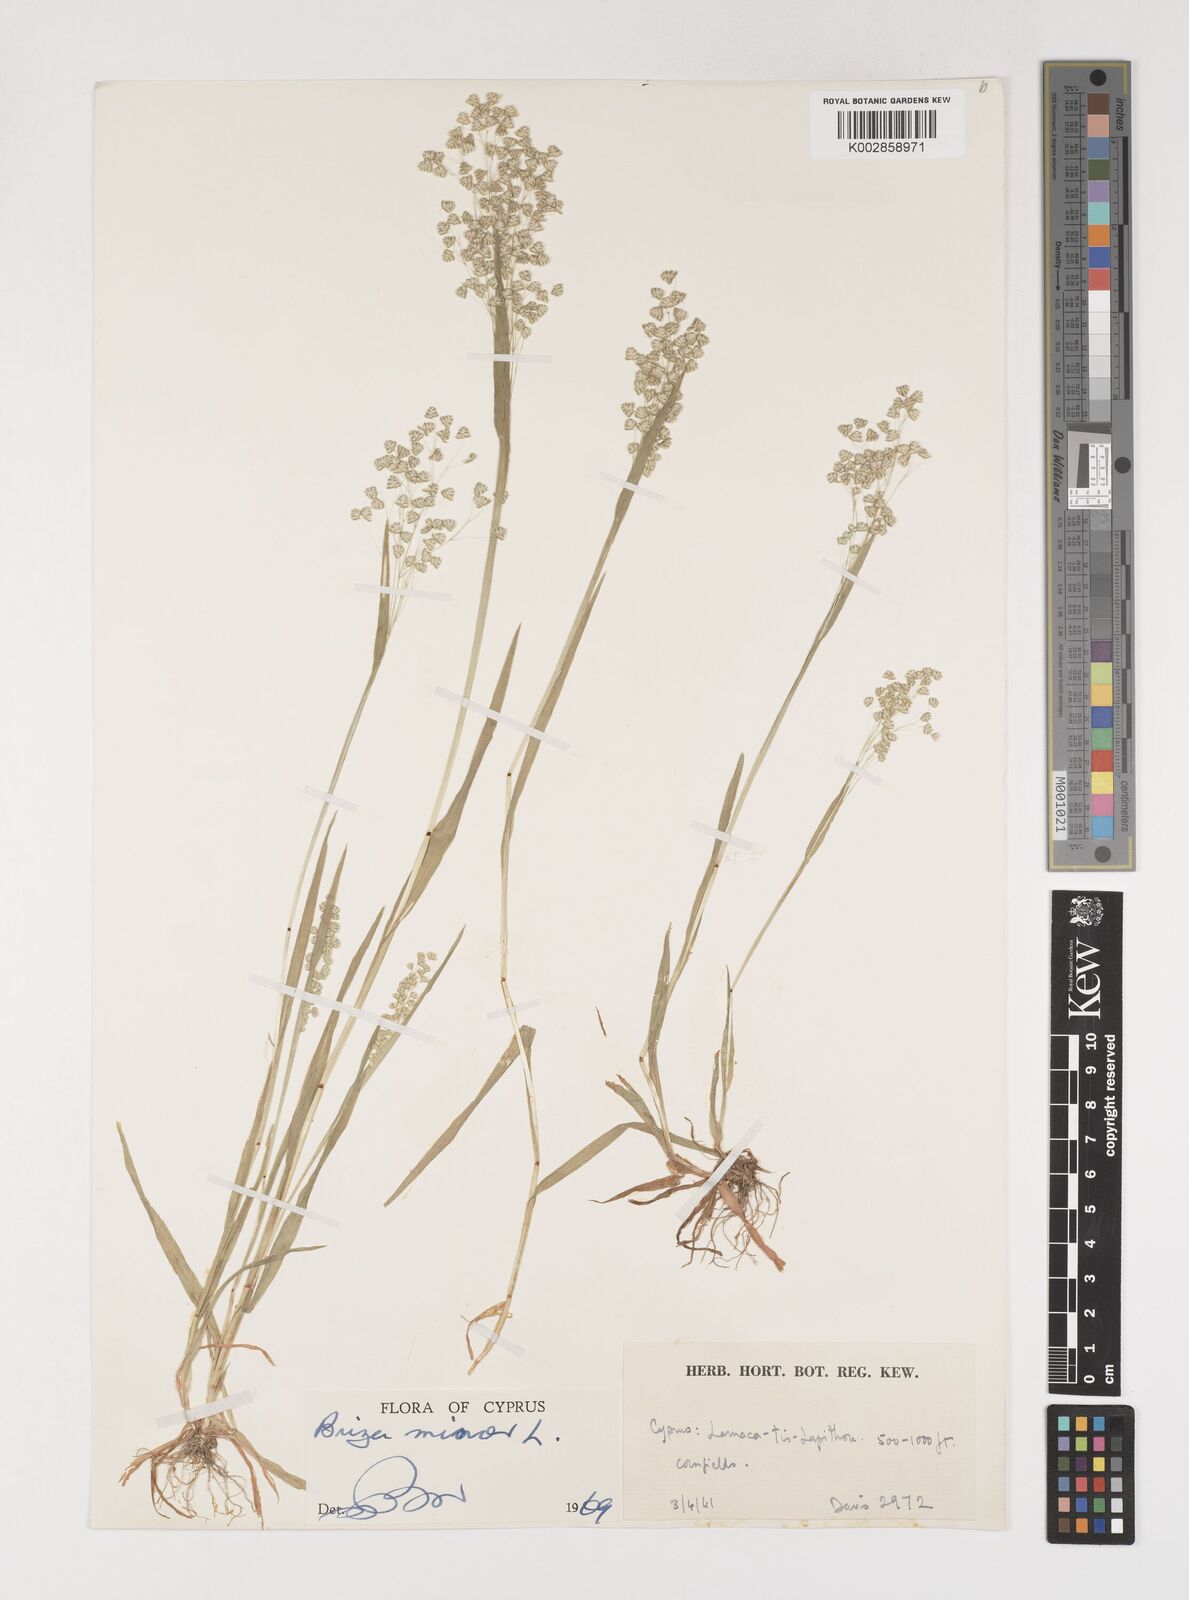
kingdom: Plantae
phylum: Tracheophyta
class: Liliopsida
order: Poales
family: Poaceae
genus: Briza
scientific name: Briza minor
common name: Lesser quaking-grass
